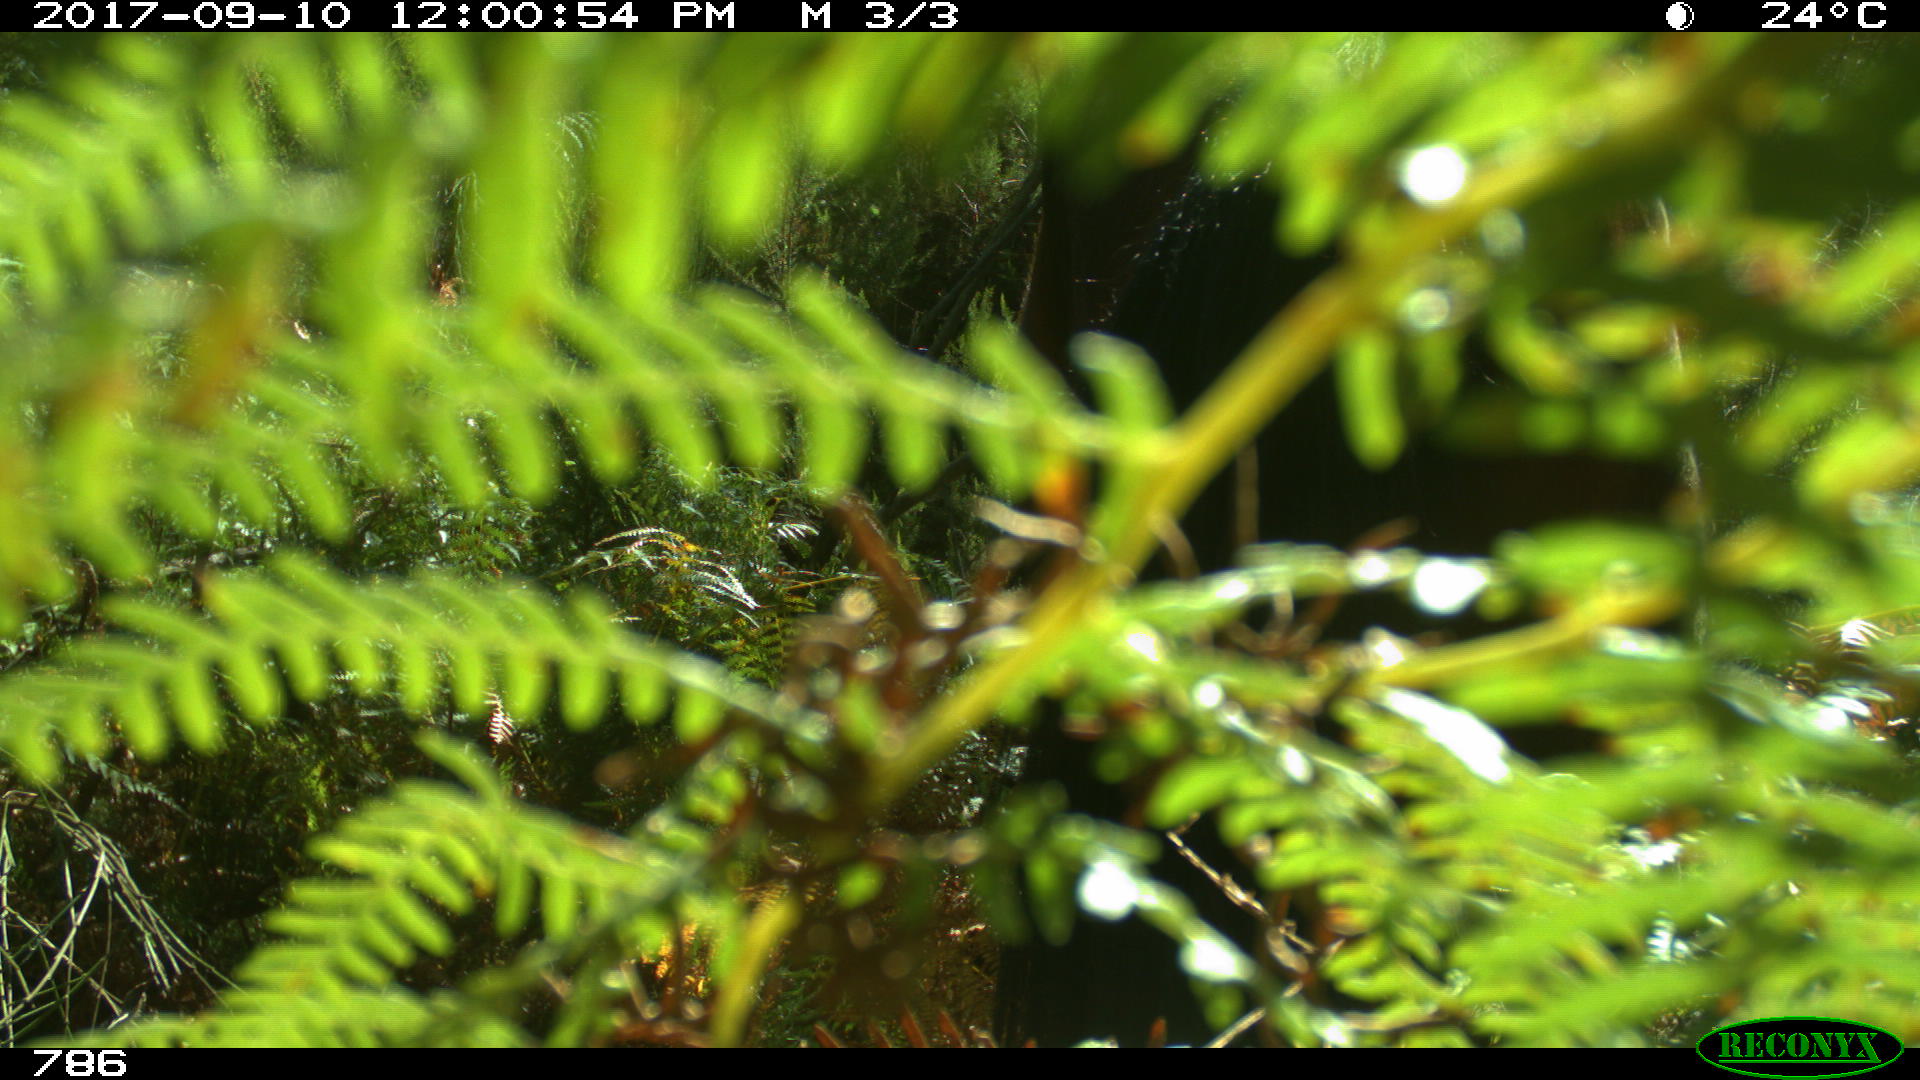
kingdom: Animalia
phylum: Chordata
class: Mammalia
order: Perissodactyla
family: Equidae
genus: Equus
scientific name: Equus caballus
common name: Horse
